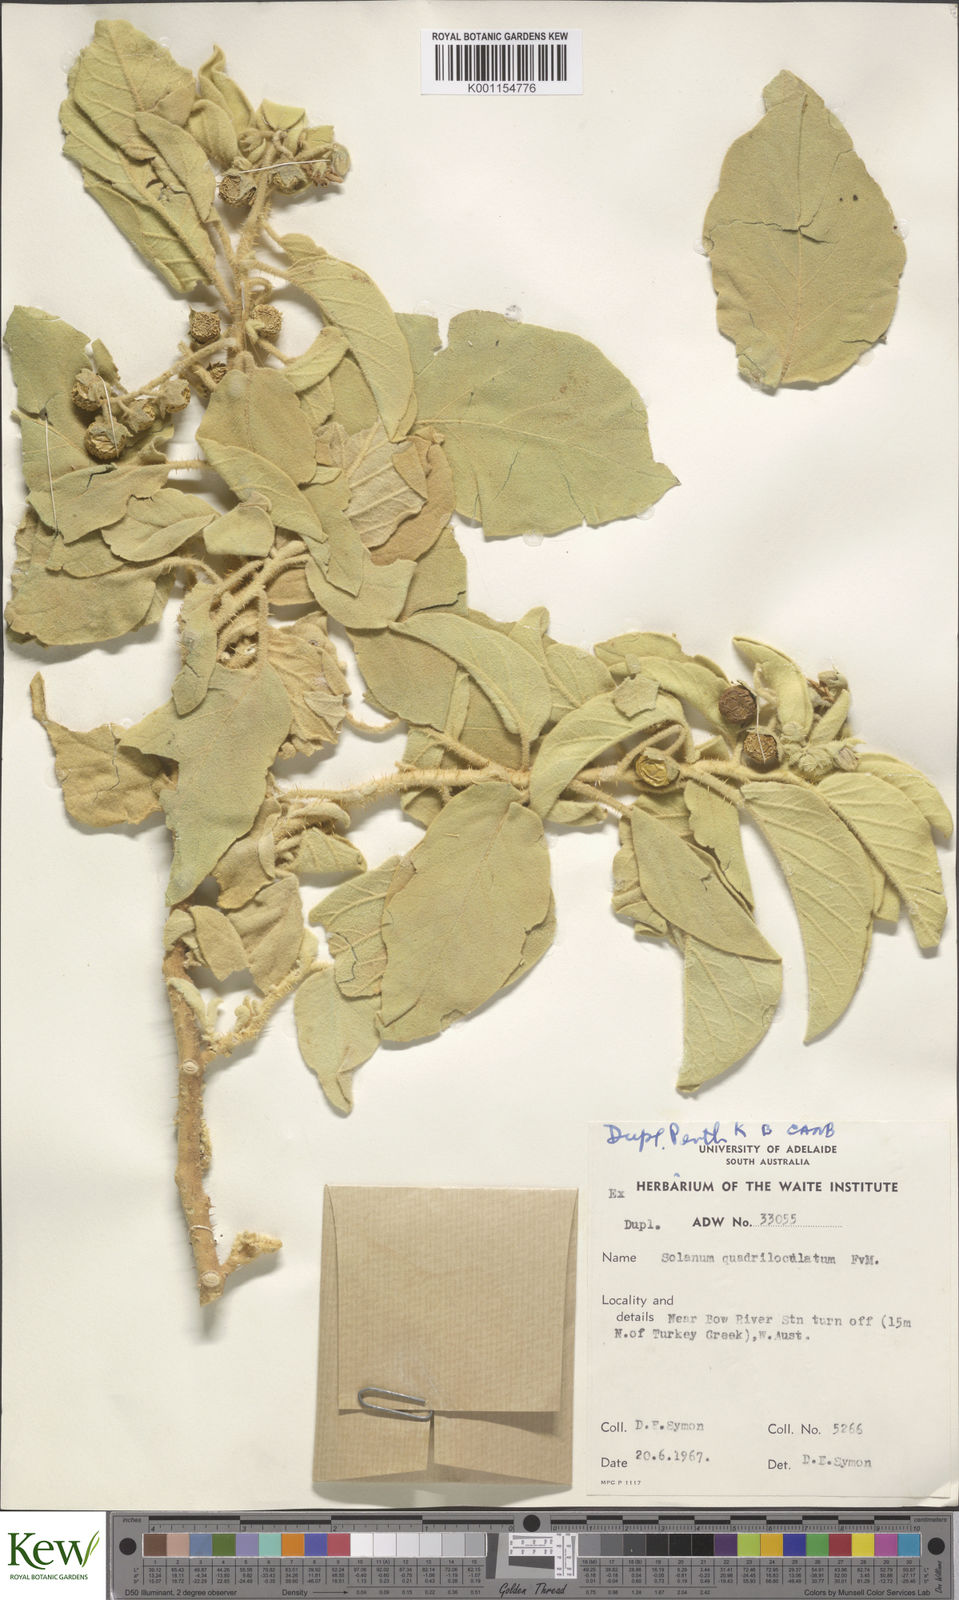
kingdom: Plantae
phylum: Tracheophyta
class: Magnoliopsida
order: Solanales
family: Solanaceae
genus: Solanum
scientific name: Solanum quadriloculatum
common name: Wild tomato
